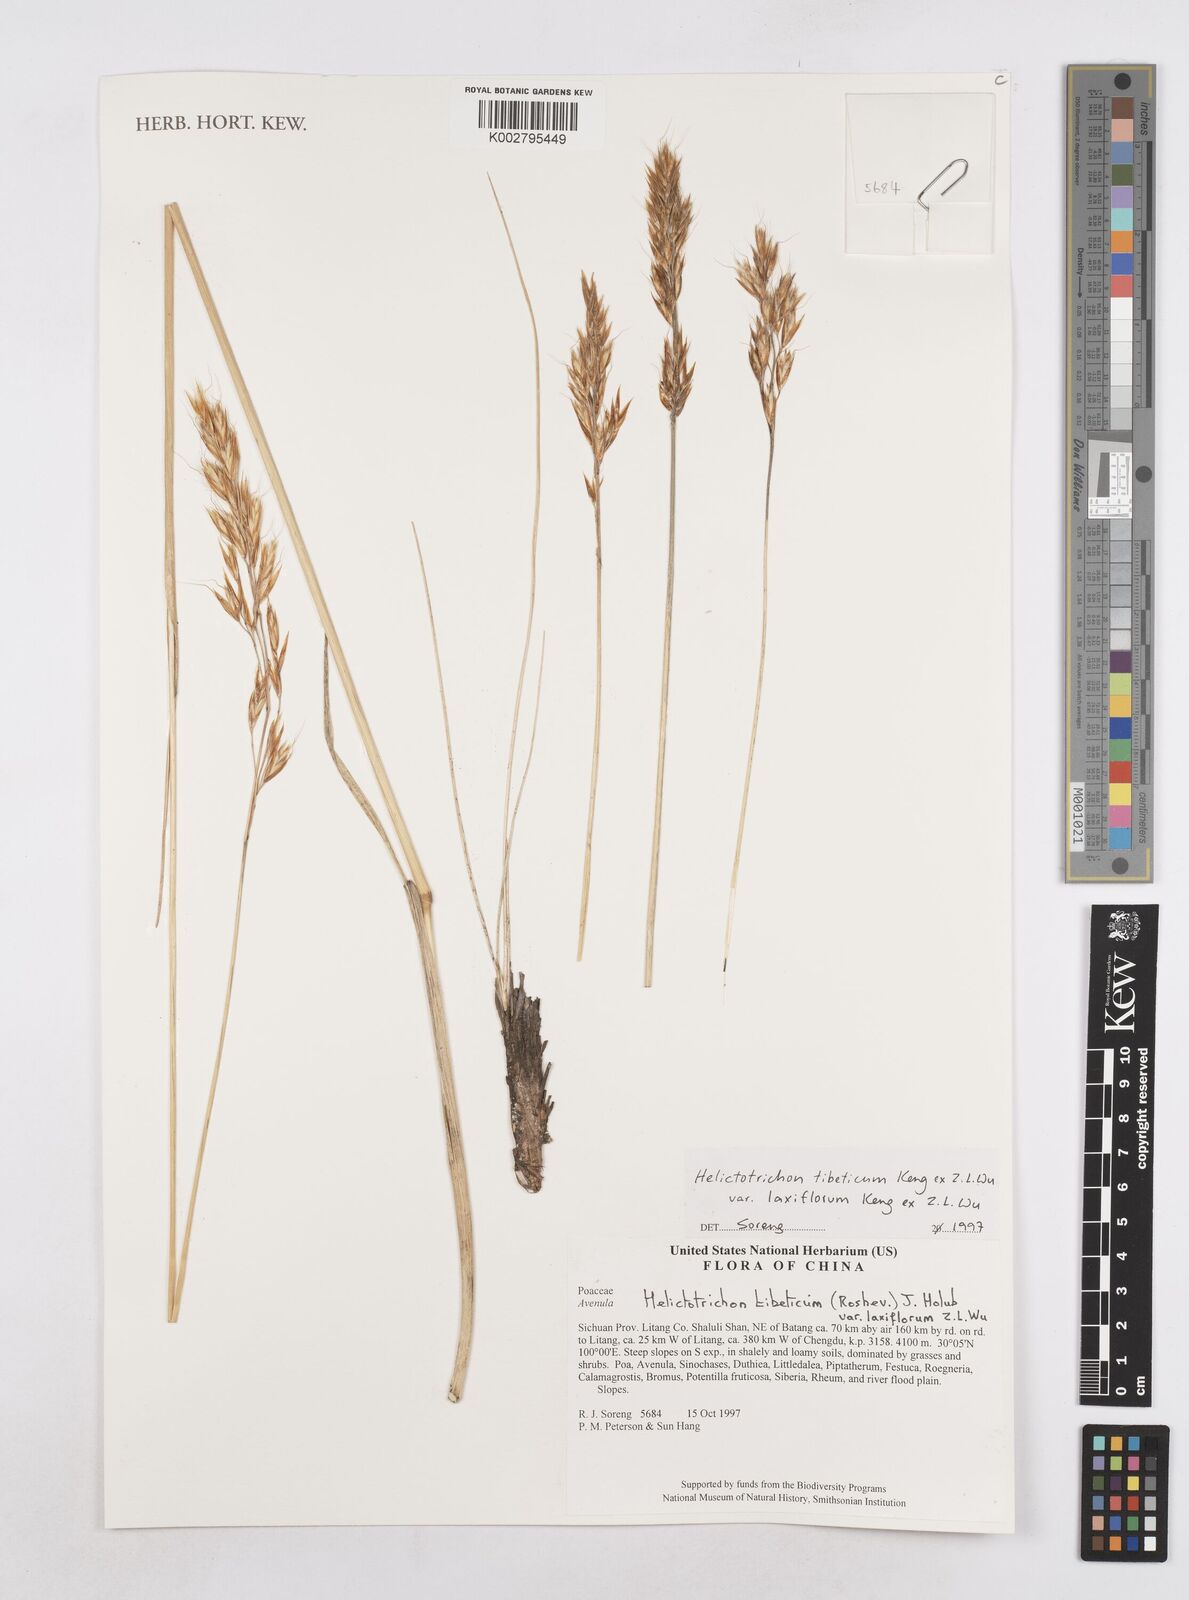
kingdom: Plantae
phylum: Tracheophyta
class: Liliopsida
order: Poales
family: Poaceae
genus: Helictotrichon
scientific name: Helictotrichon tibeticum
